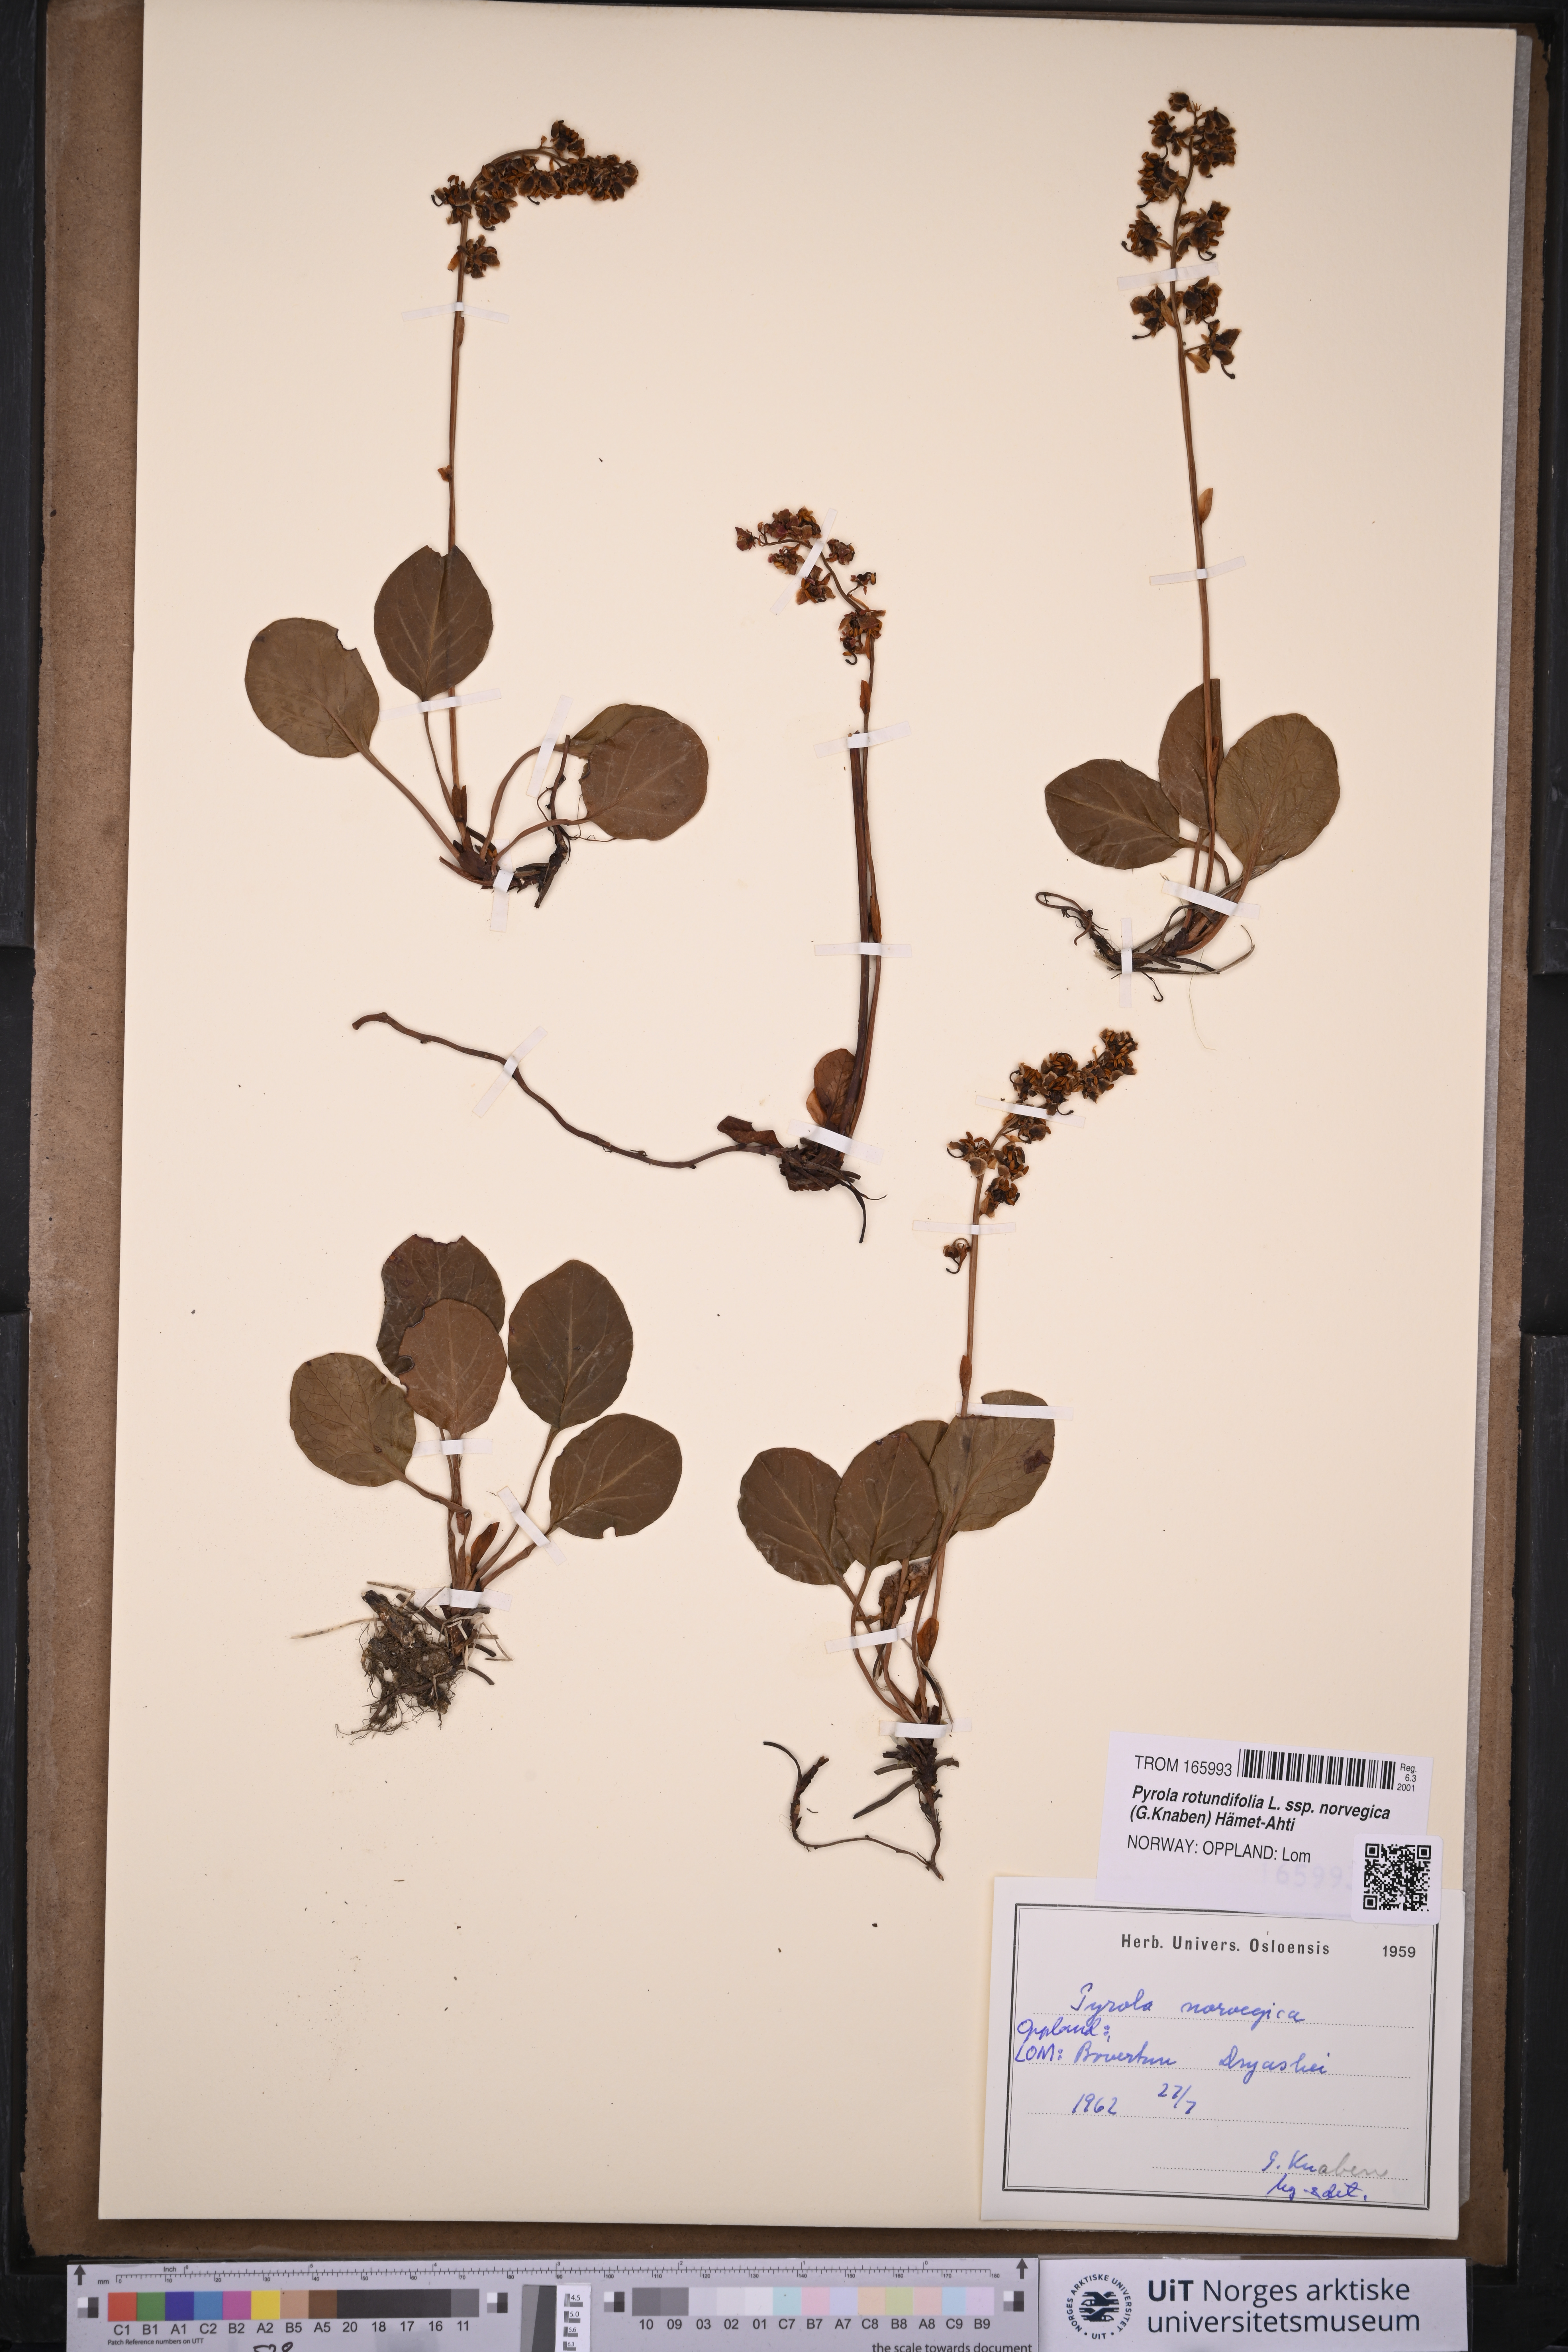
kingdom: Plantae
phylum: Tracheophyta
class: Magnoliopsida
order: Ericales
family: Ericaceae
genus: Pyrola
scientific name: Pyrola rotundifolia
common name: Round-leaved wintergreen
